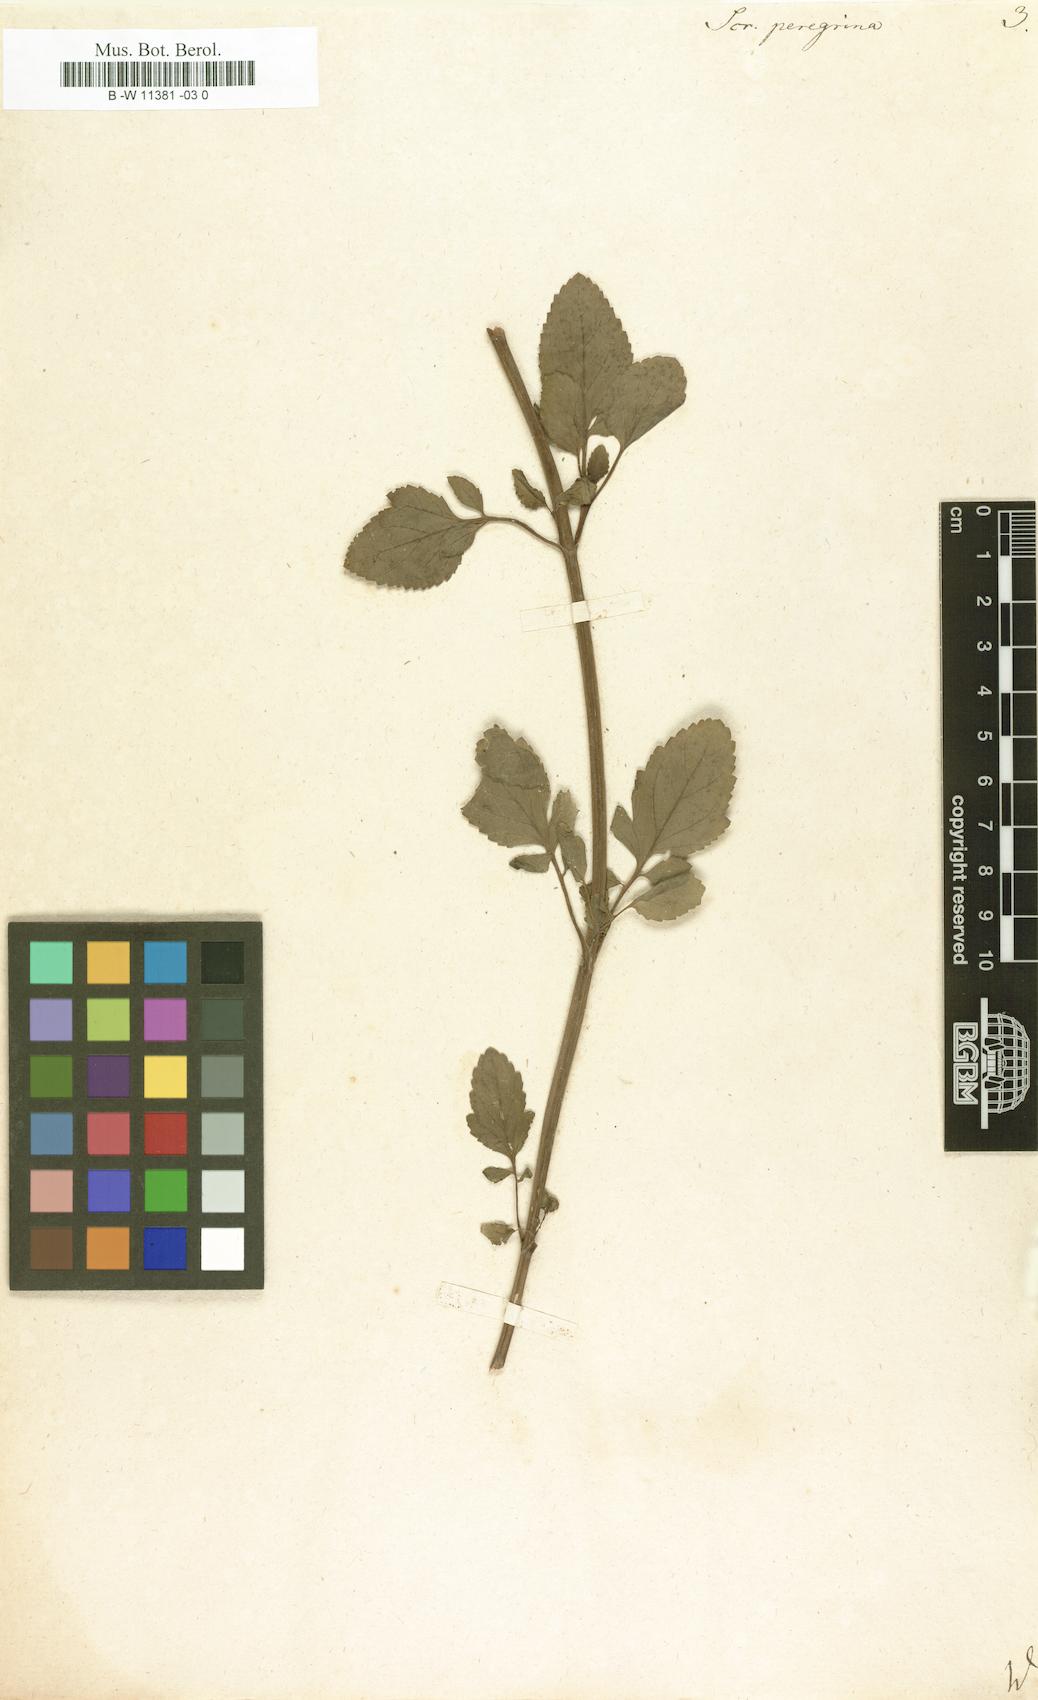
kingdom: Plantae
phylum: Tracheophyta
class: Magnoliopsida
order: Lamiales
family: Scrophulariaceae
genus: Scrophularia
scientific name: Scrophularia peregrina
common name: Mediterranean figwort
